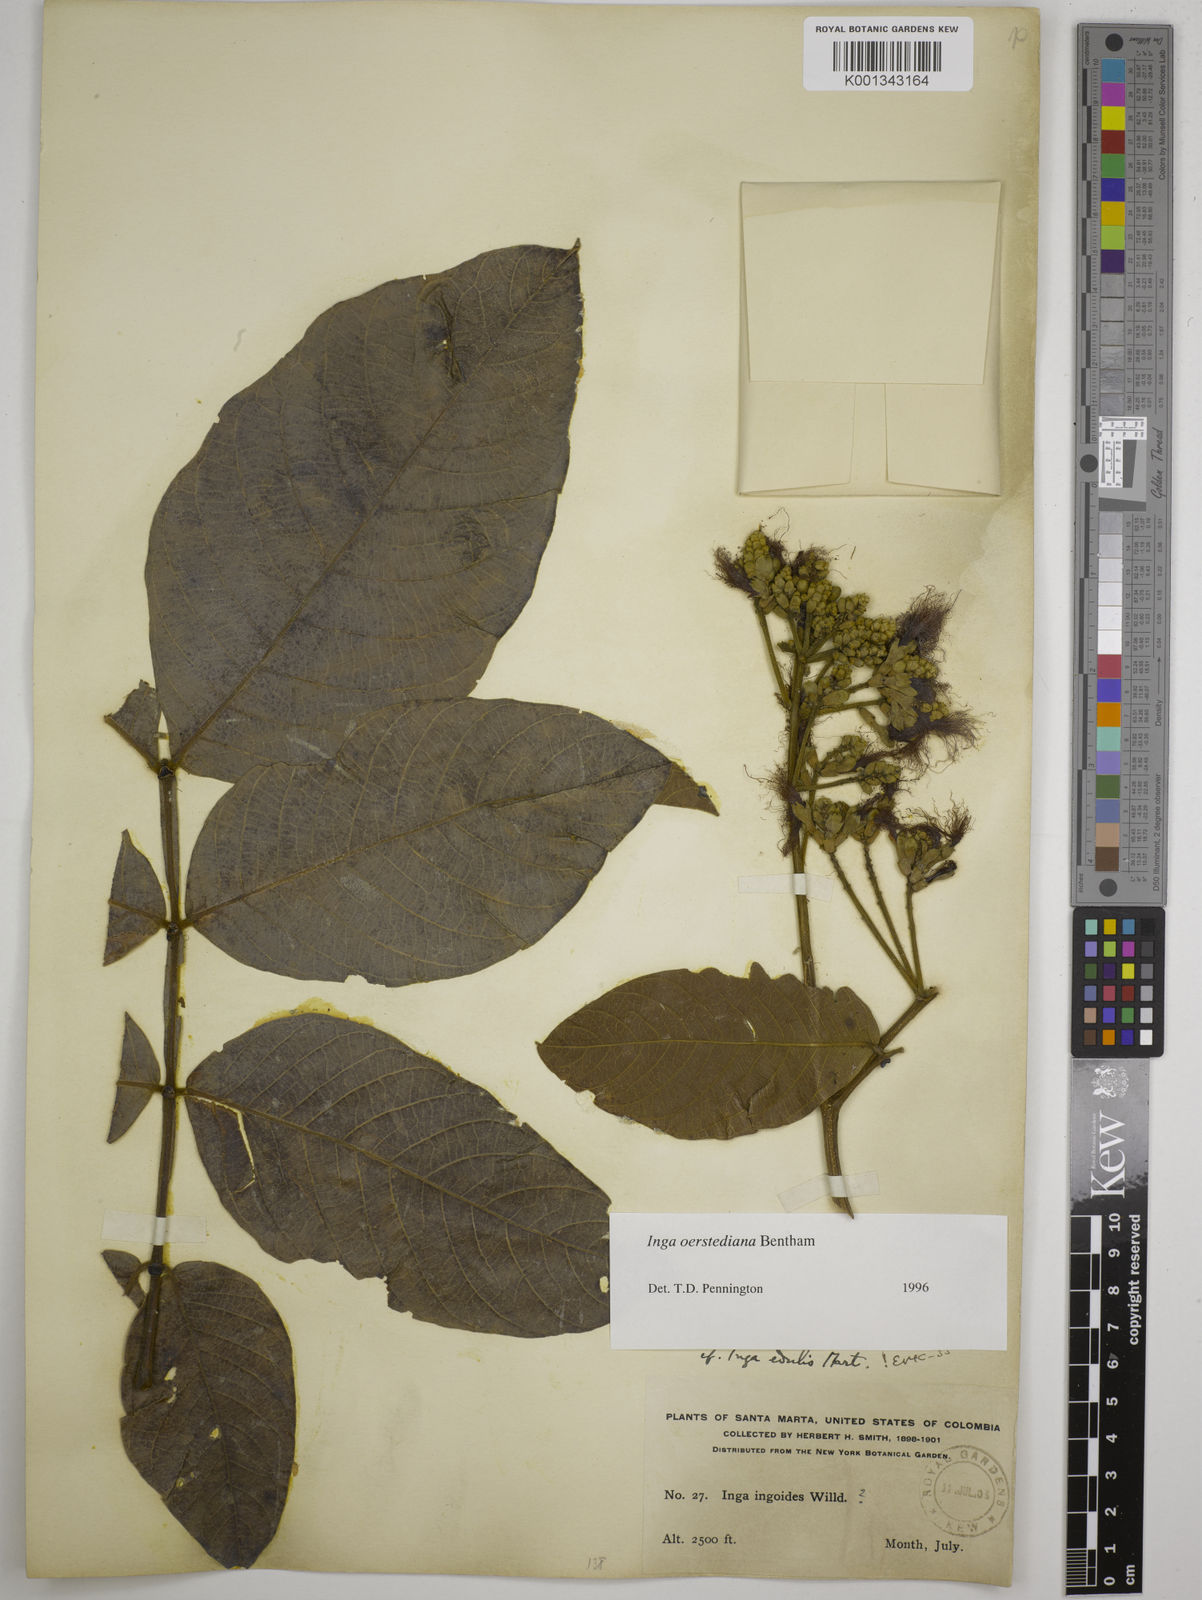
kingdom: Plantae
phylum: Tracheophyta
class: Magnoliopsida
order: Fabales
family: Fabaceae
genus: Inga
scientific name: Inga oerstediana
